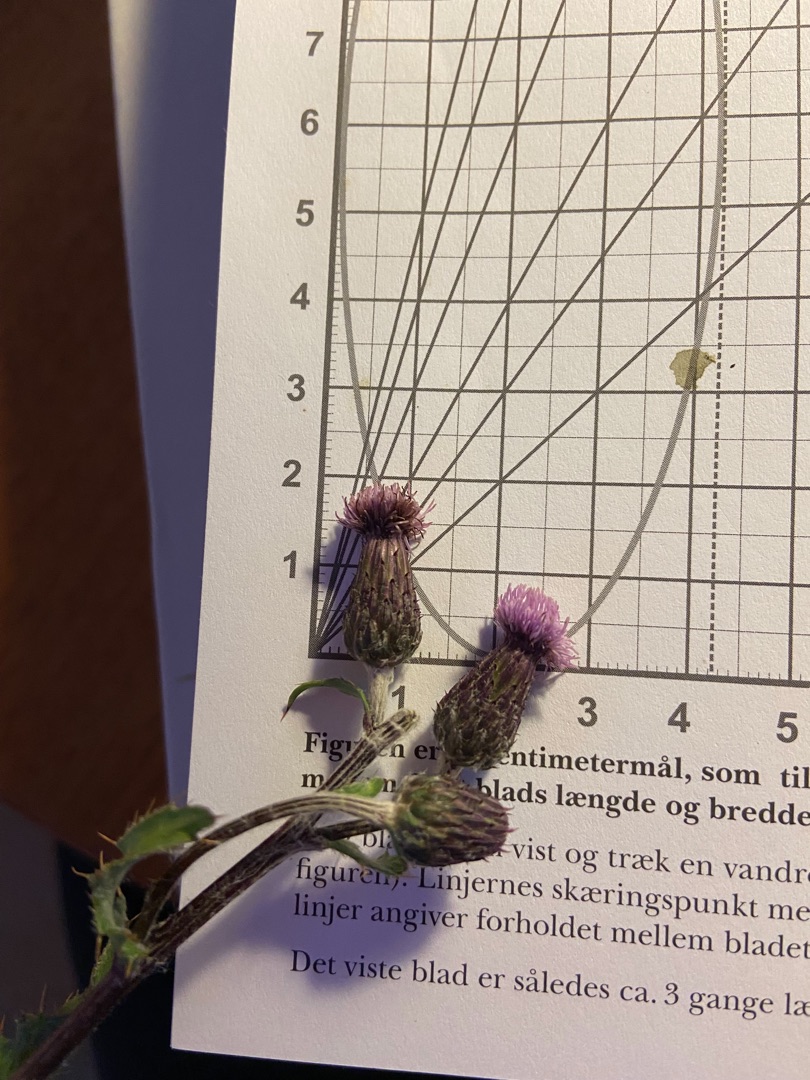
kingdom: Plantae
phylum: Tracheophyta
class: Magnoliopsida
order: Asterales
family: Asteraceae
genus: Cirsium
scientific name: Cirsium arvense
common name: Ager-tidsel
